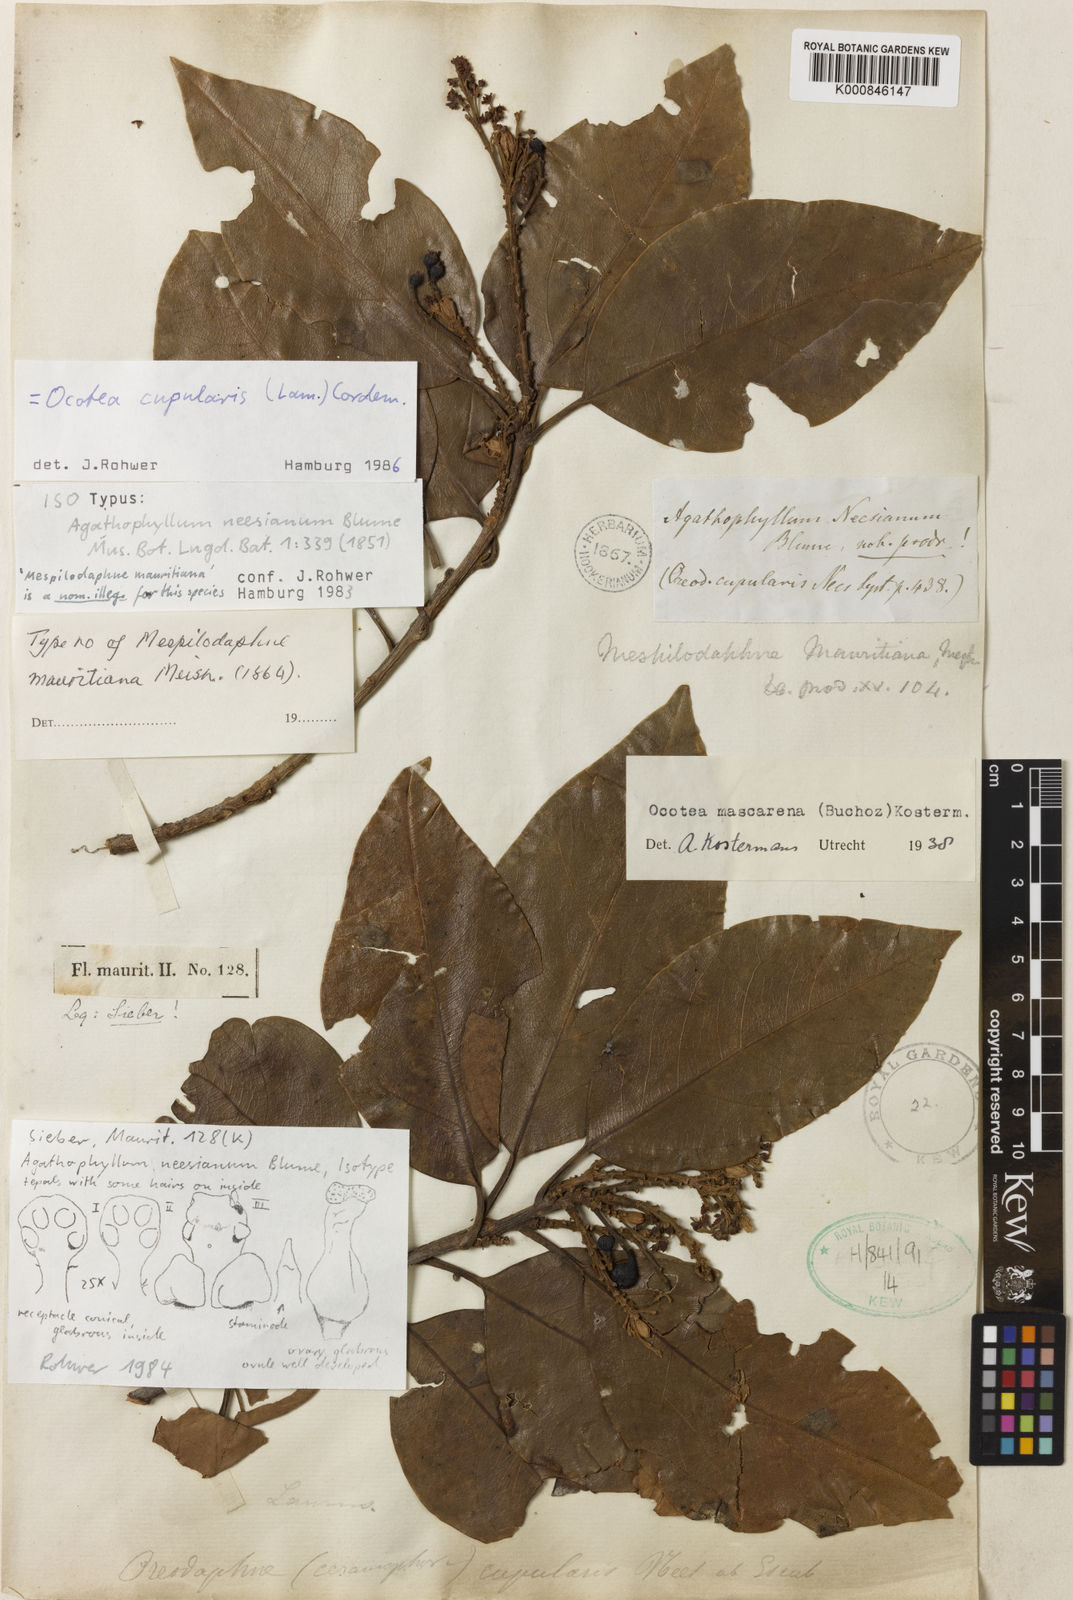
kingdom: Plantae
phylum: Tracheophyta
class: Magnoliopsida
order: Laurales
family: Lauraceae
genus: Mespilodaphne
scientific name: Mespilodaphne cupularis
